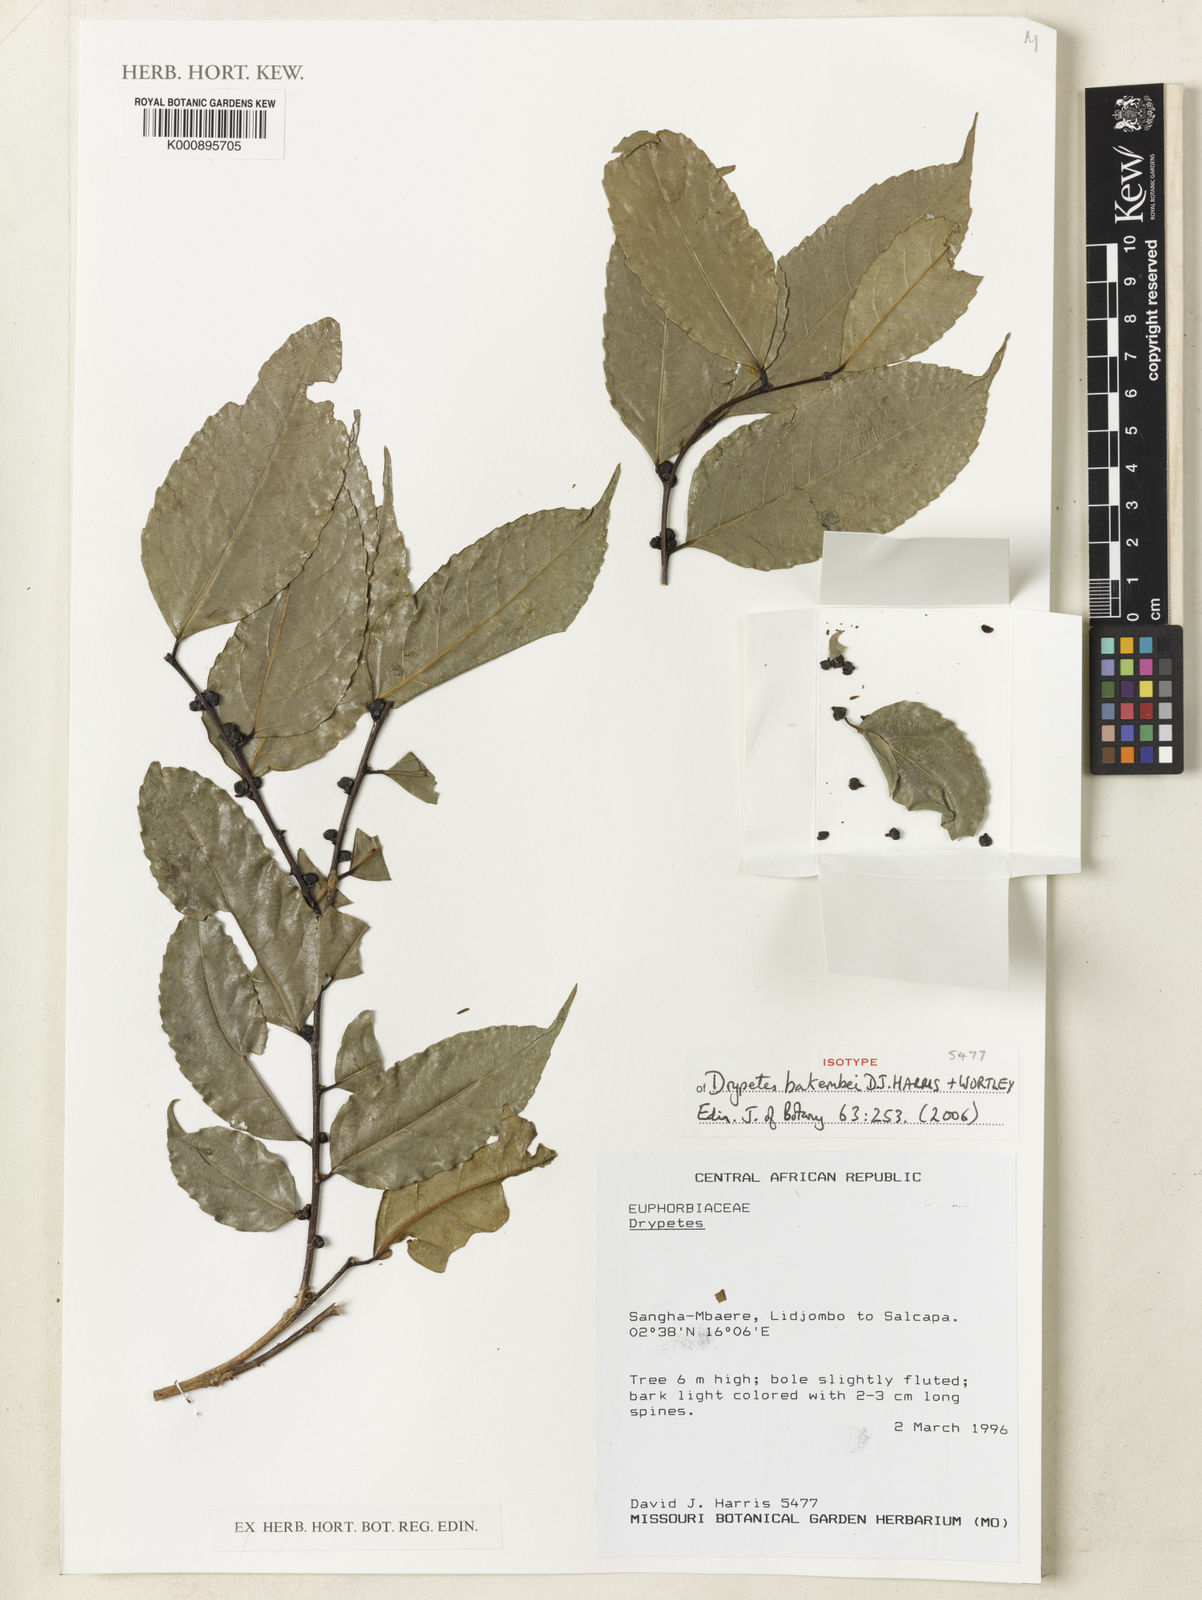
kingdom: Plantae
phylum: Tracheophyta
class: Magnoliopsida
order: Malpighiales
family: Putranjivaceae
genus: Drypetes
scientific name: Drypetes bakembei
